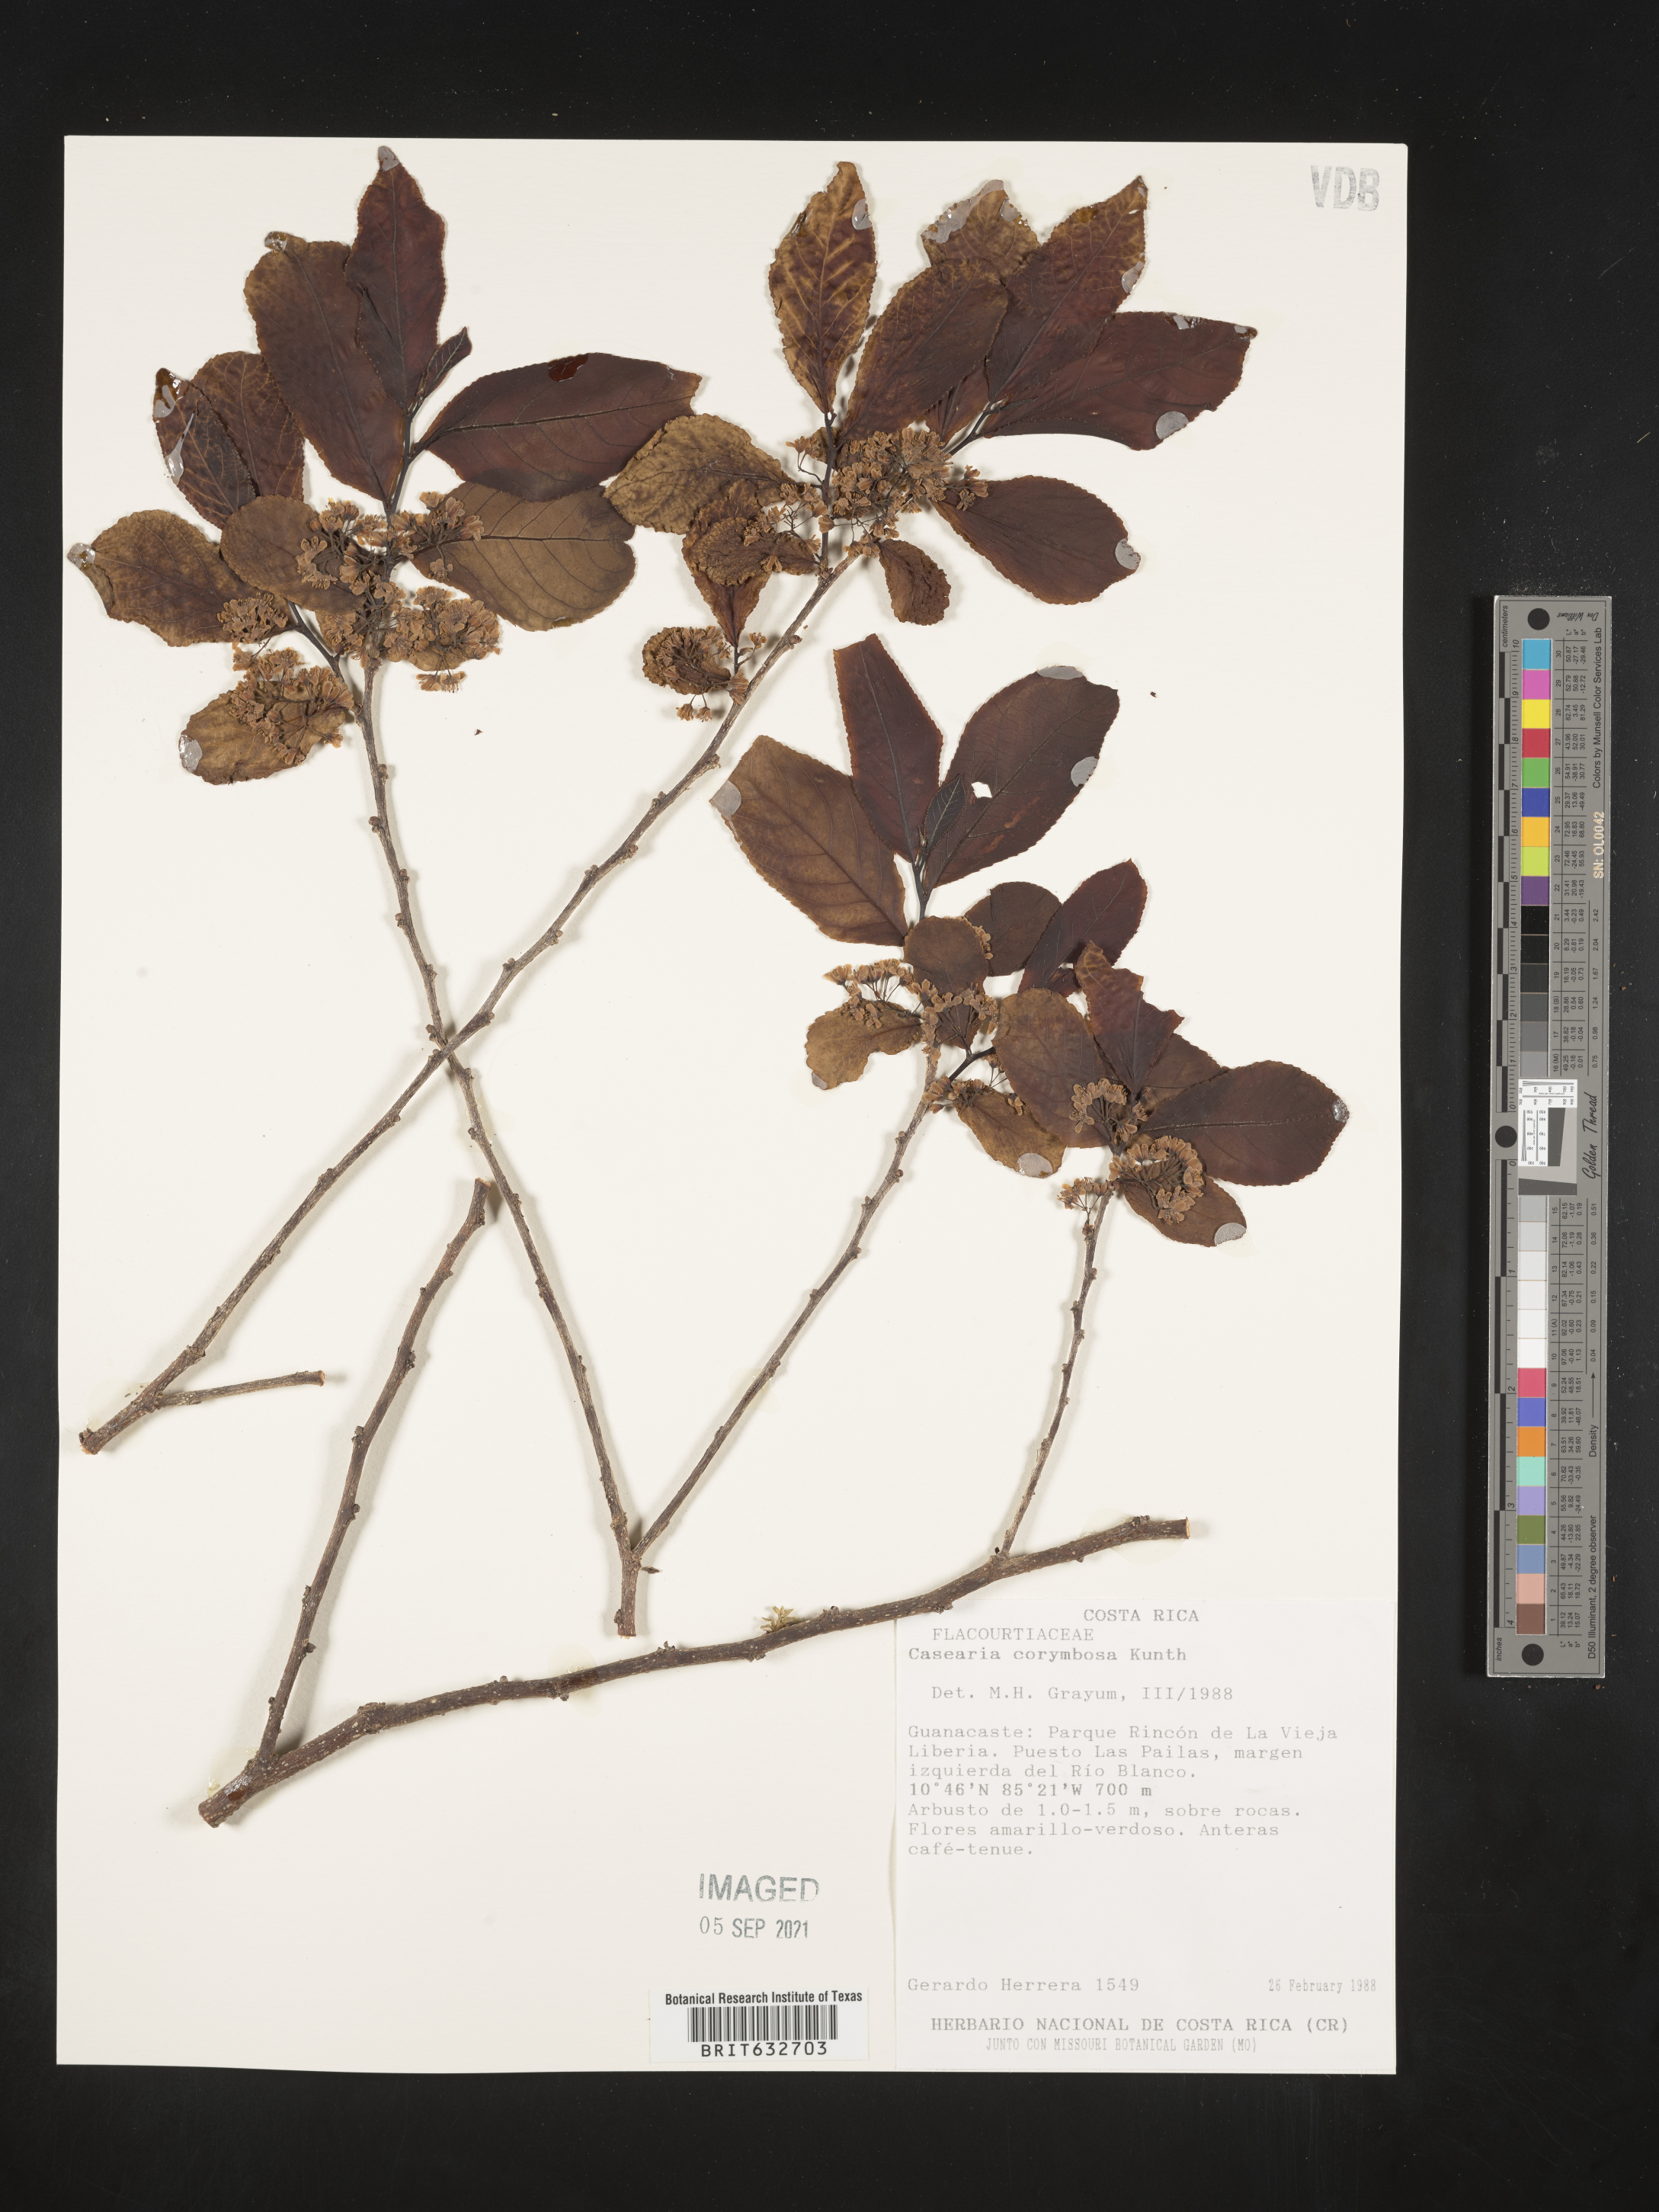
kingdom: Plantae
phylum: Tracheophyta
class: Magnoliopsida
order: Malpighiales
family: Salicaceae
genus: Casearia
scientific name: Casearia
